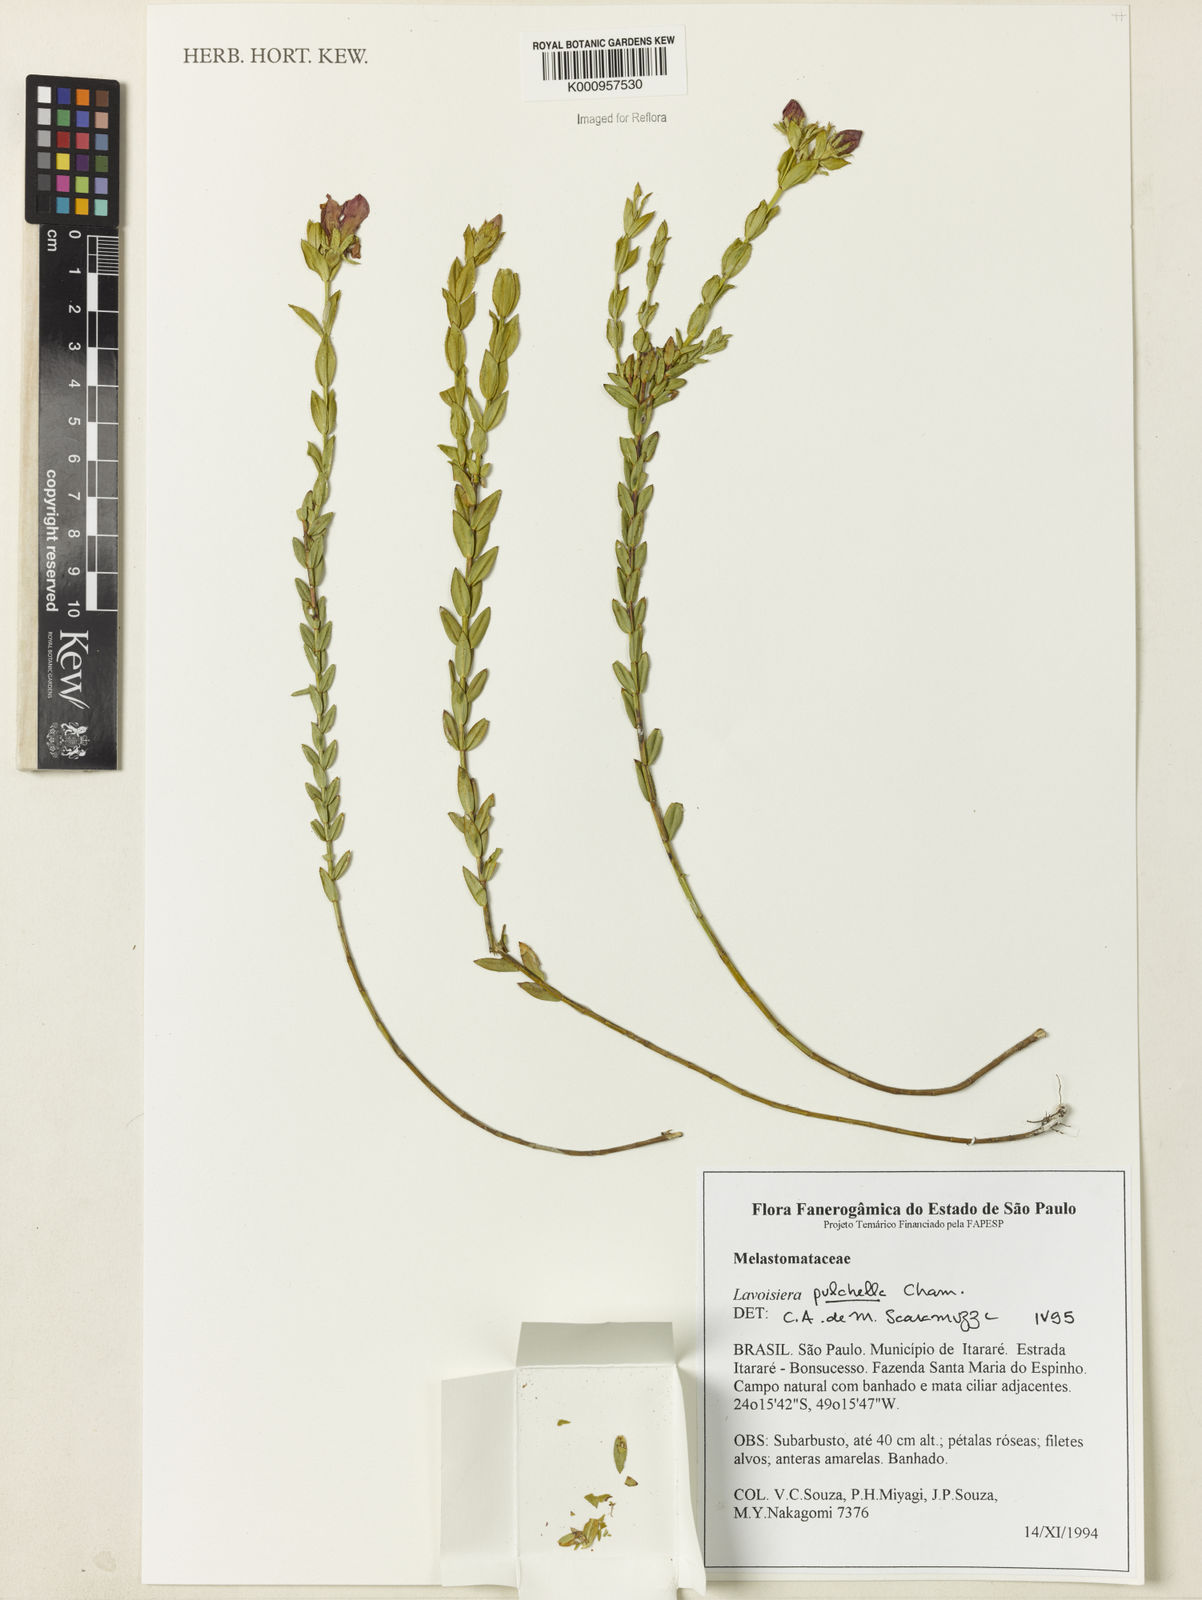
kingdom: Plantae
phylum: Tracheophyta
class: Magnoliopsida
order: Myrtales
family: Melastomataceae
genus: Microlicia
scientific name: Microlicia australis
